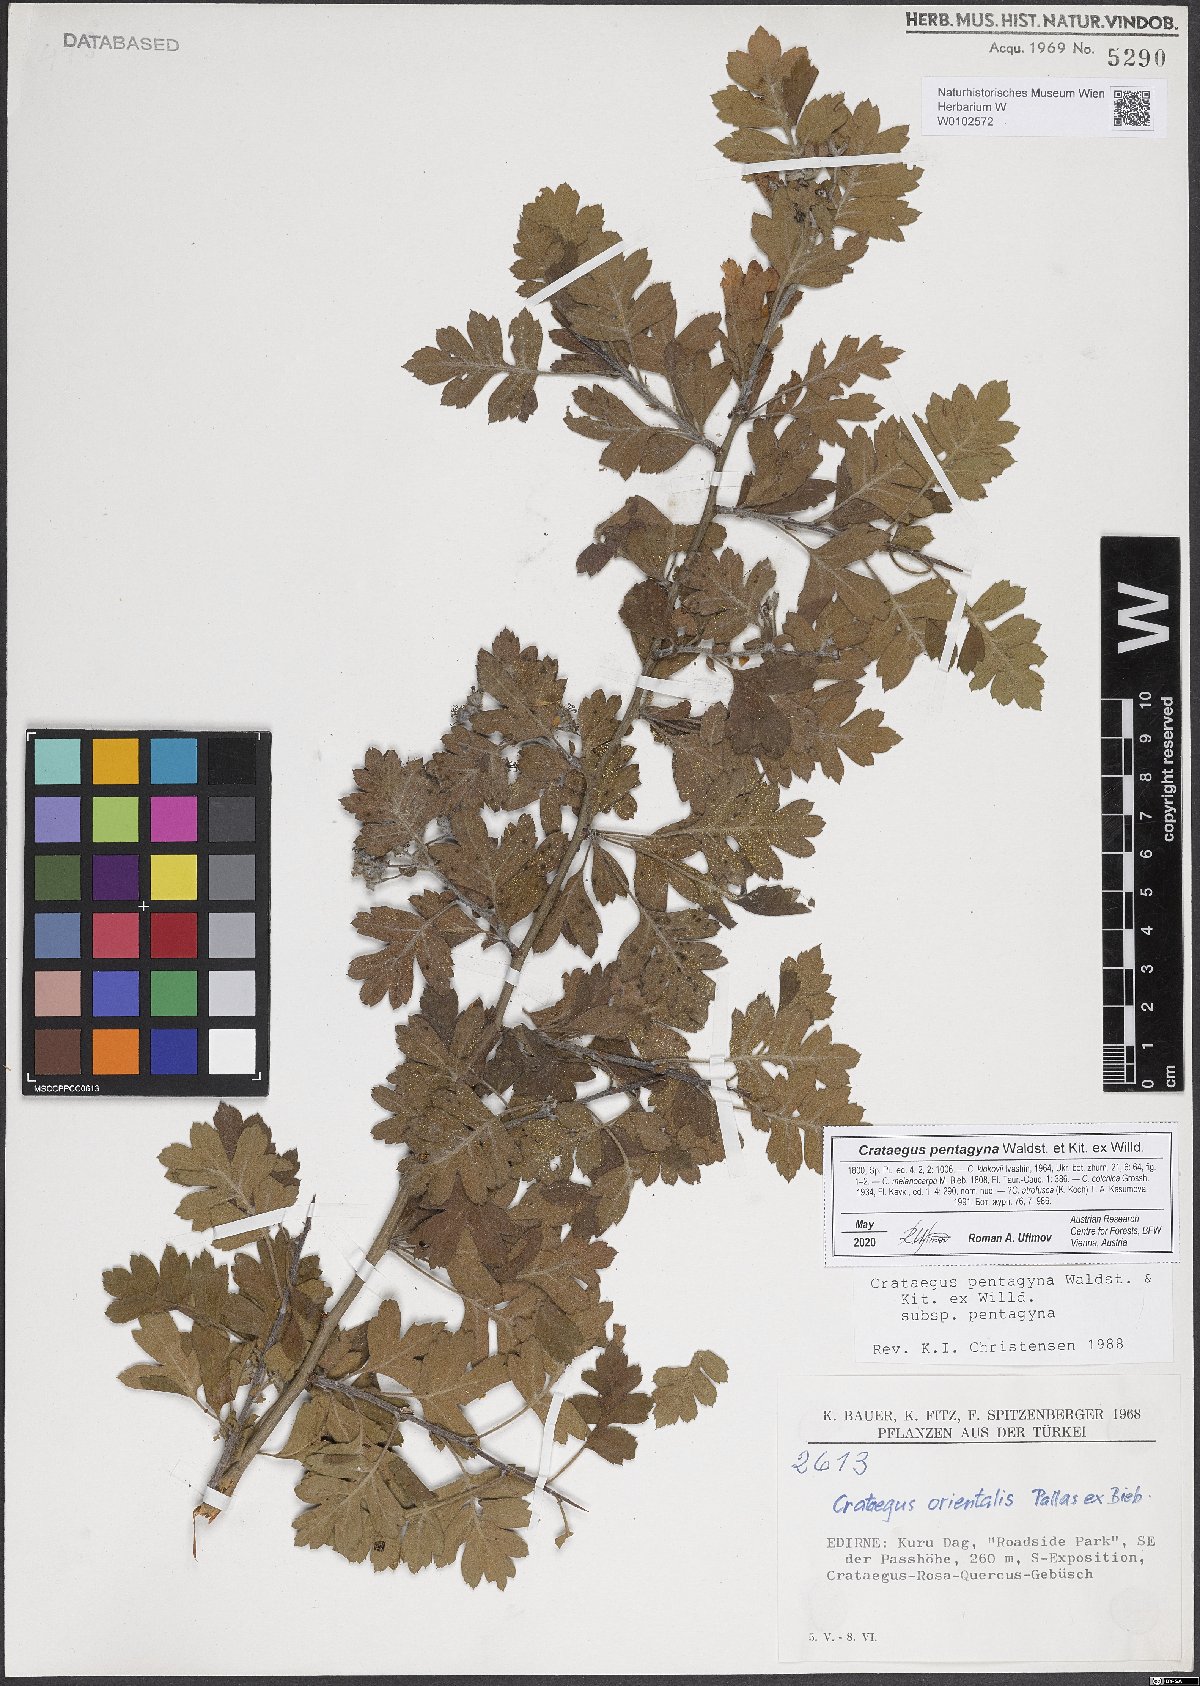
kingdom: Plantae
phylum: Tracheophyta
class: Magnoliopsida
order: Rosales
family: Rosaceae
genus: Crataegus
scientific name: Crataegus pentagyna
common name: Small-flowered black hawthorn
